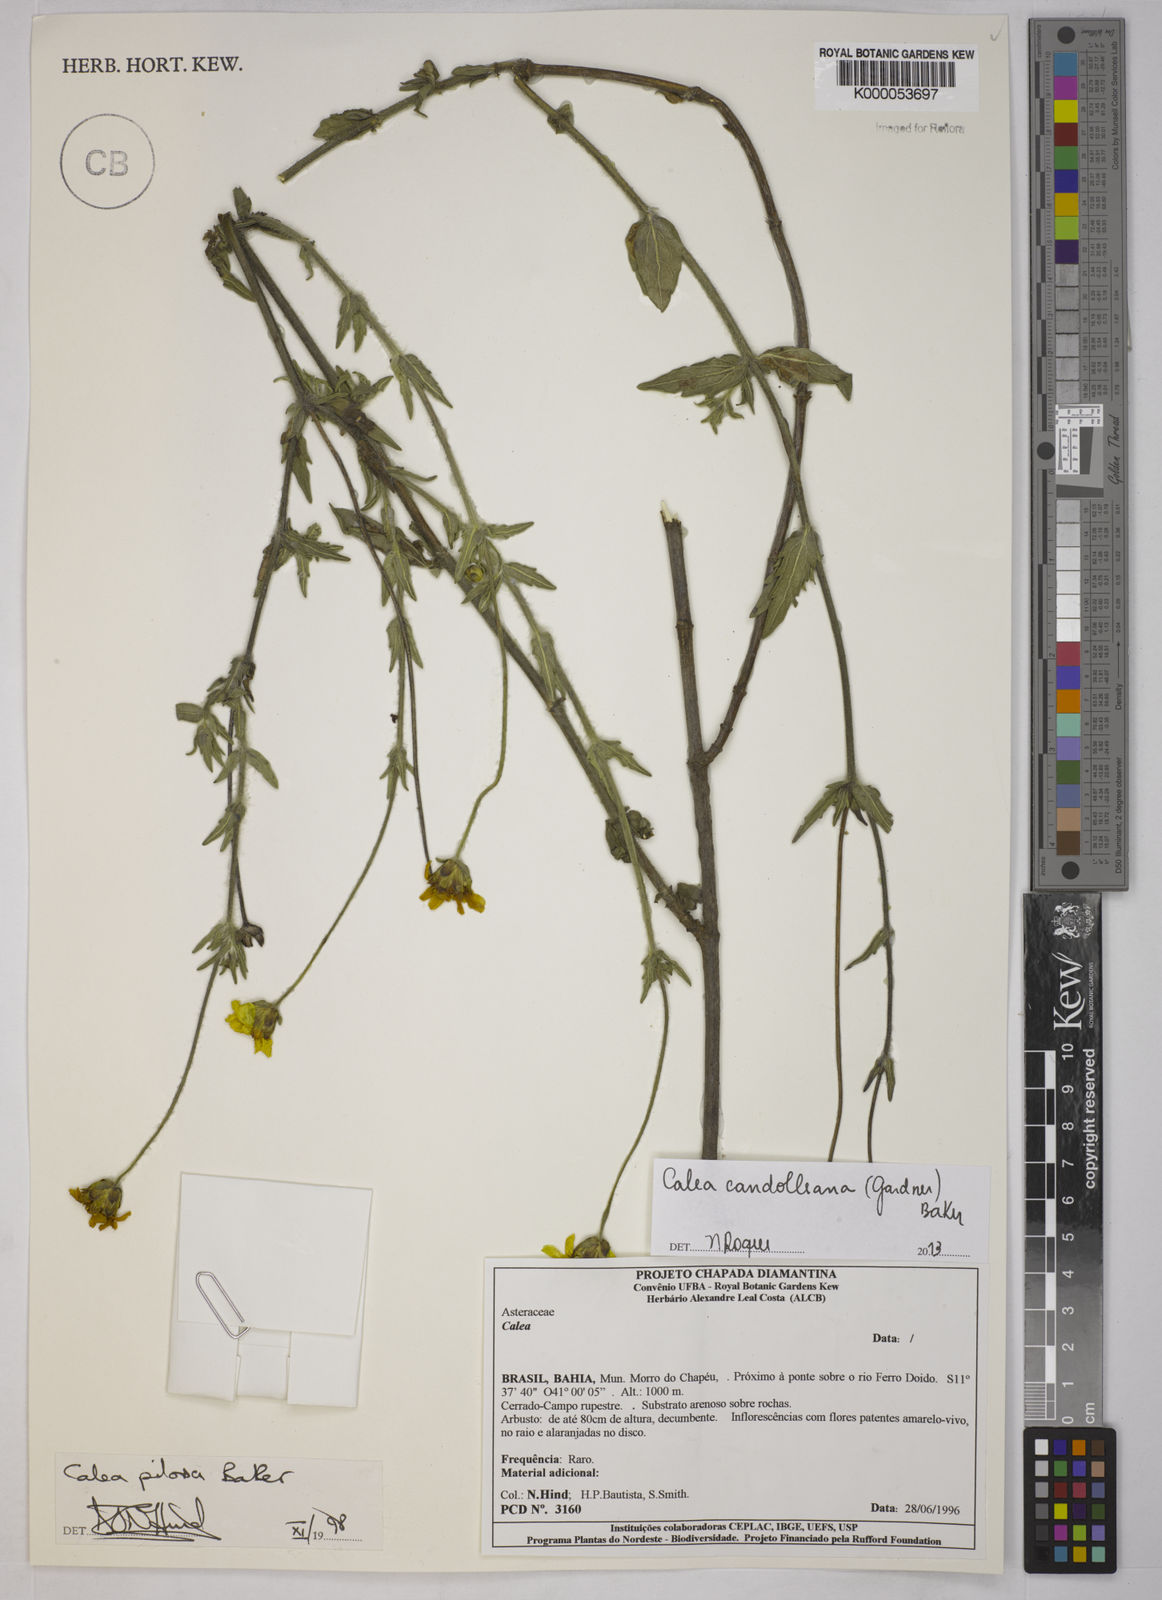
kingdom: Plantae
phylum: Tracheophyta
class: Magnoliopsida
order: Asterales
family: Asteraceae
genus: Calea
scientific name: Calea pilosa
